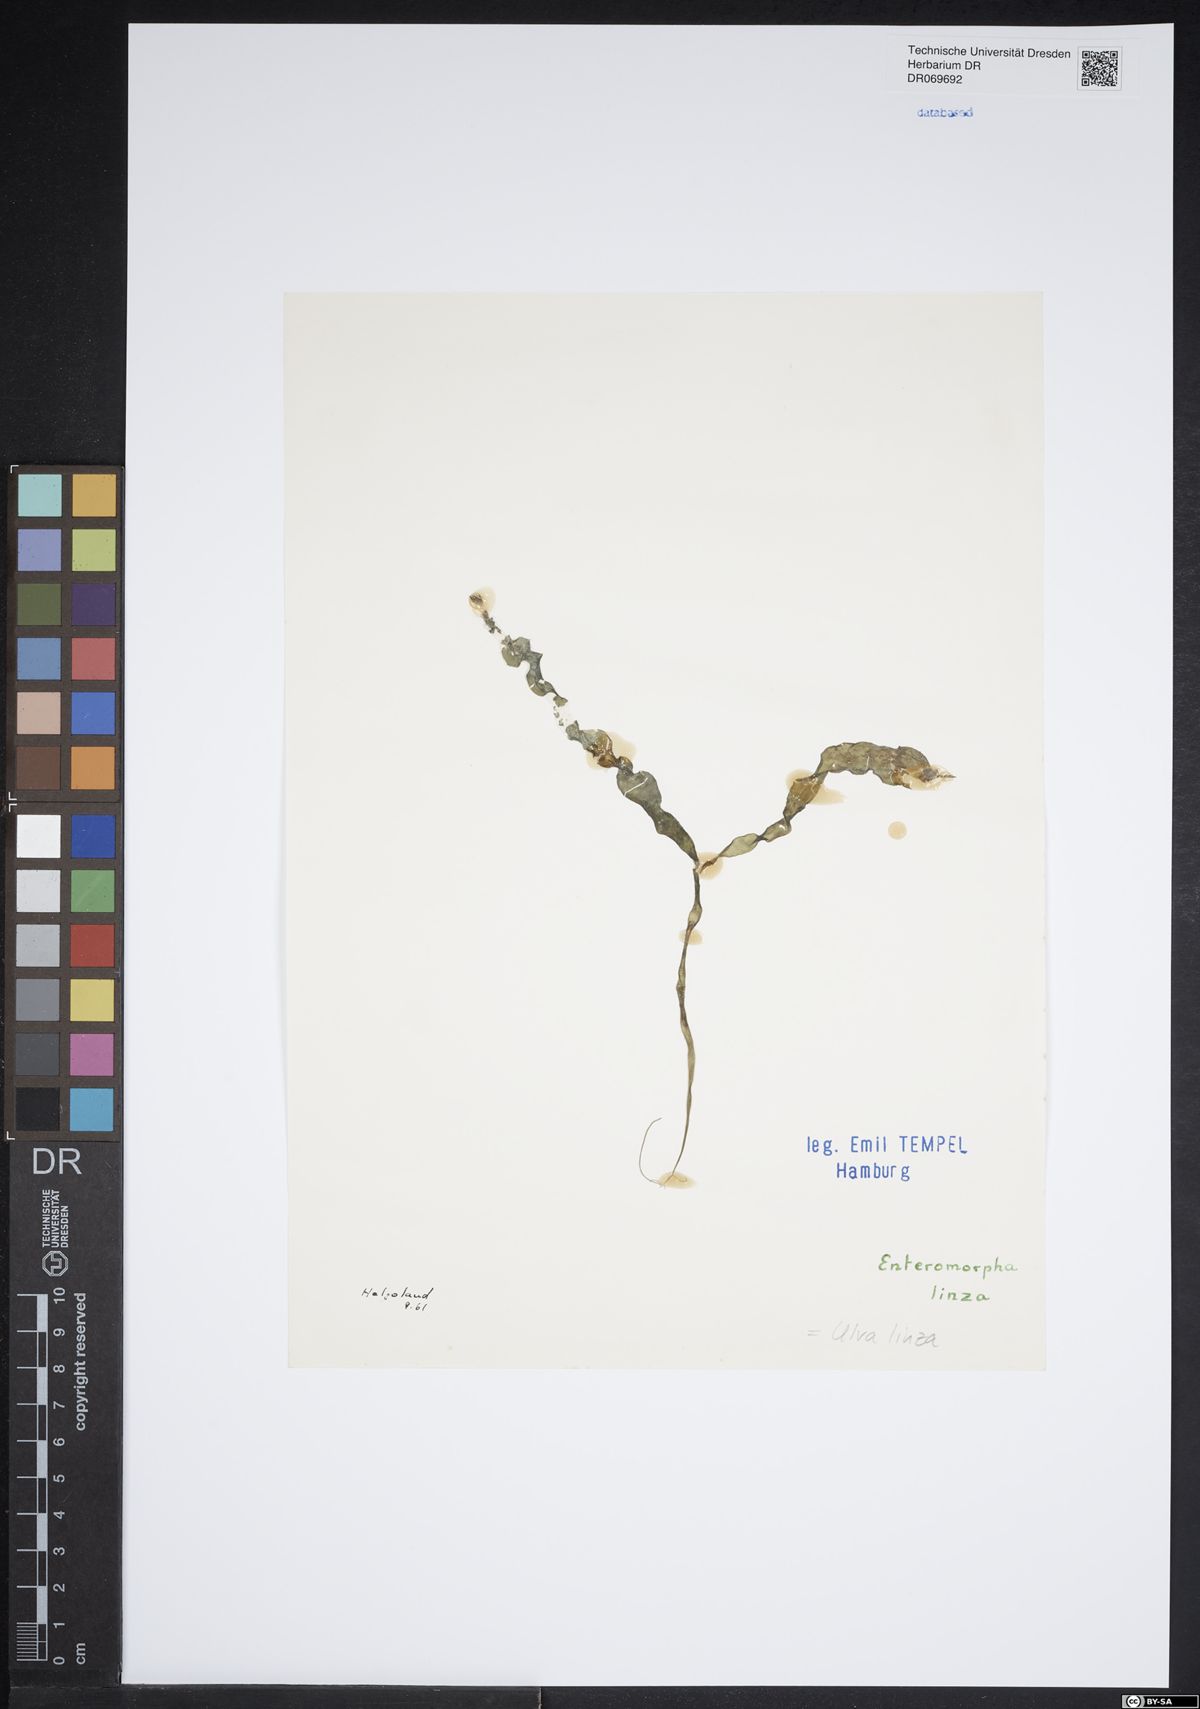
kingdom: Plantae
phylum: Chlorophyta
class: Ulvophyceae
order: Ulvales
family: Ulvaceae
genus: Ulva
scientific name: Ulva linza
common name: Green string lettuce
